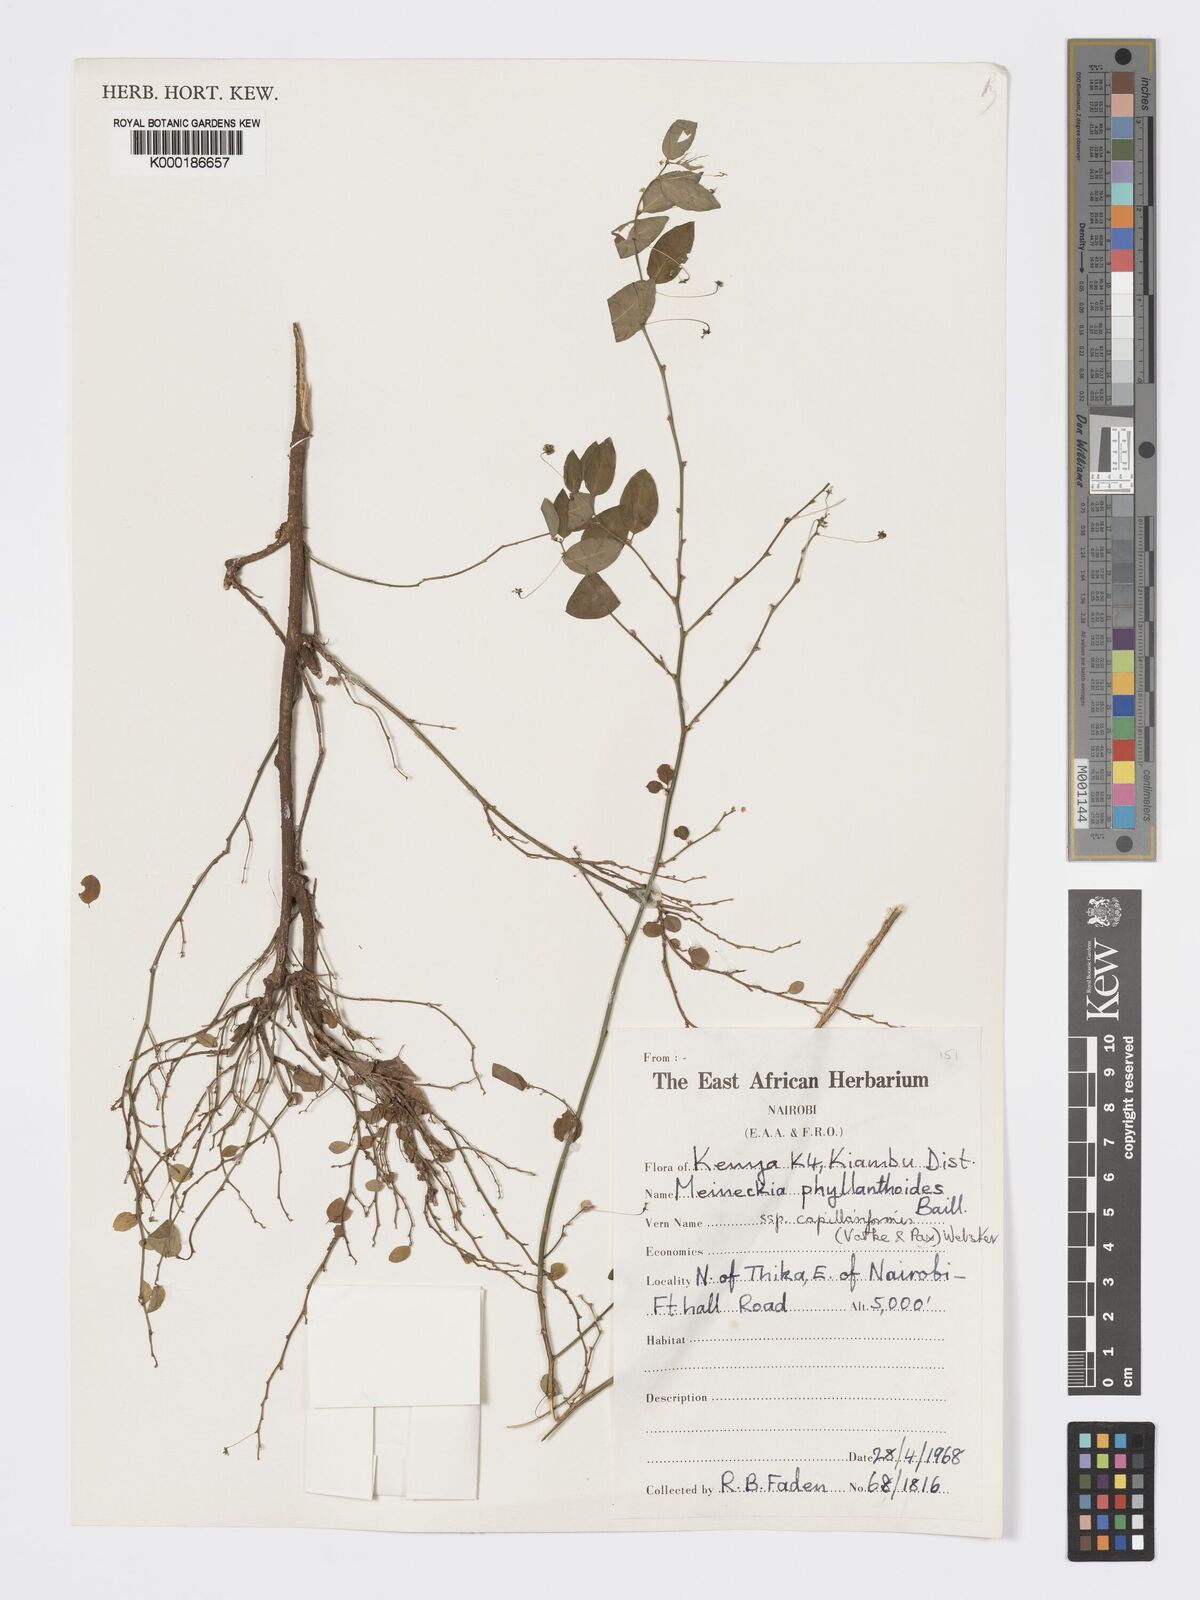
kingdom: Plantae
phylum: Tracheophyta
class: Magnoliopsida
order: Malpighiales
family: Phyllanthaceae
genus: Meineckia
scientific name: Meineckia phyllanthoides
